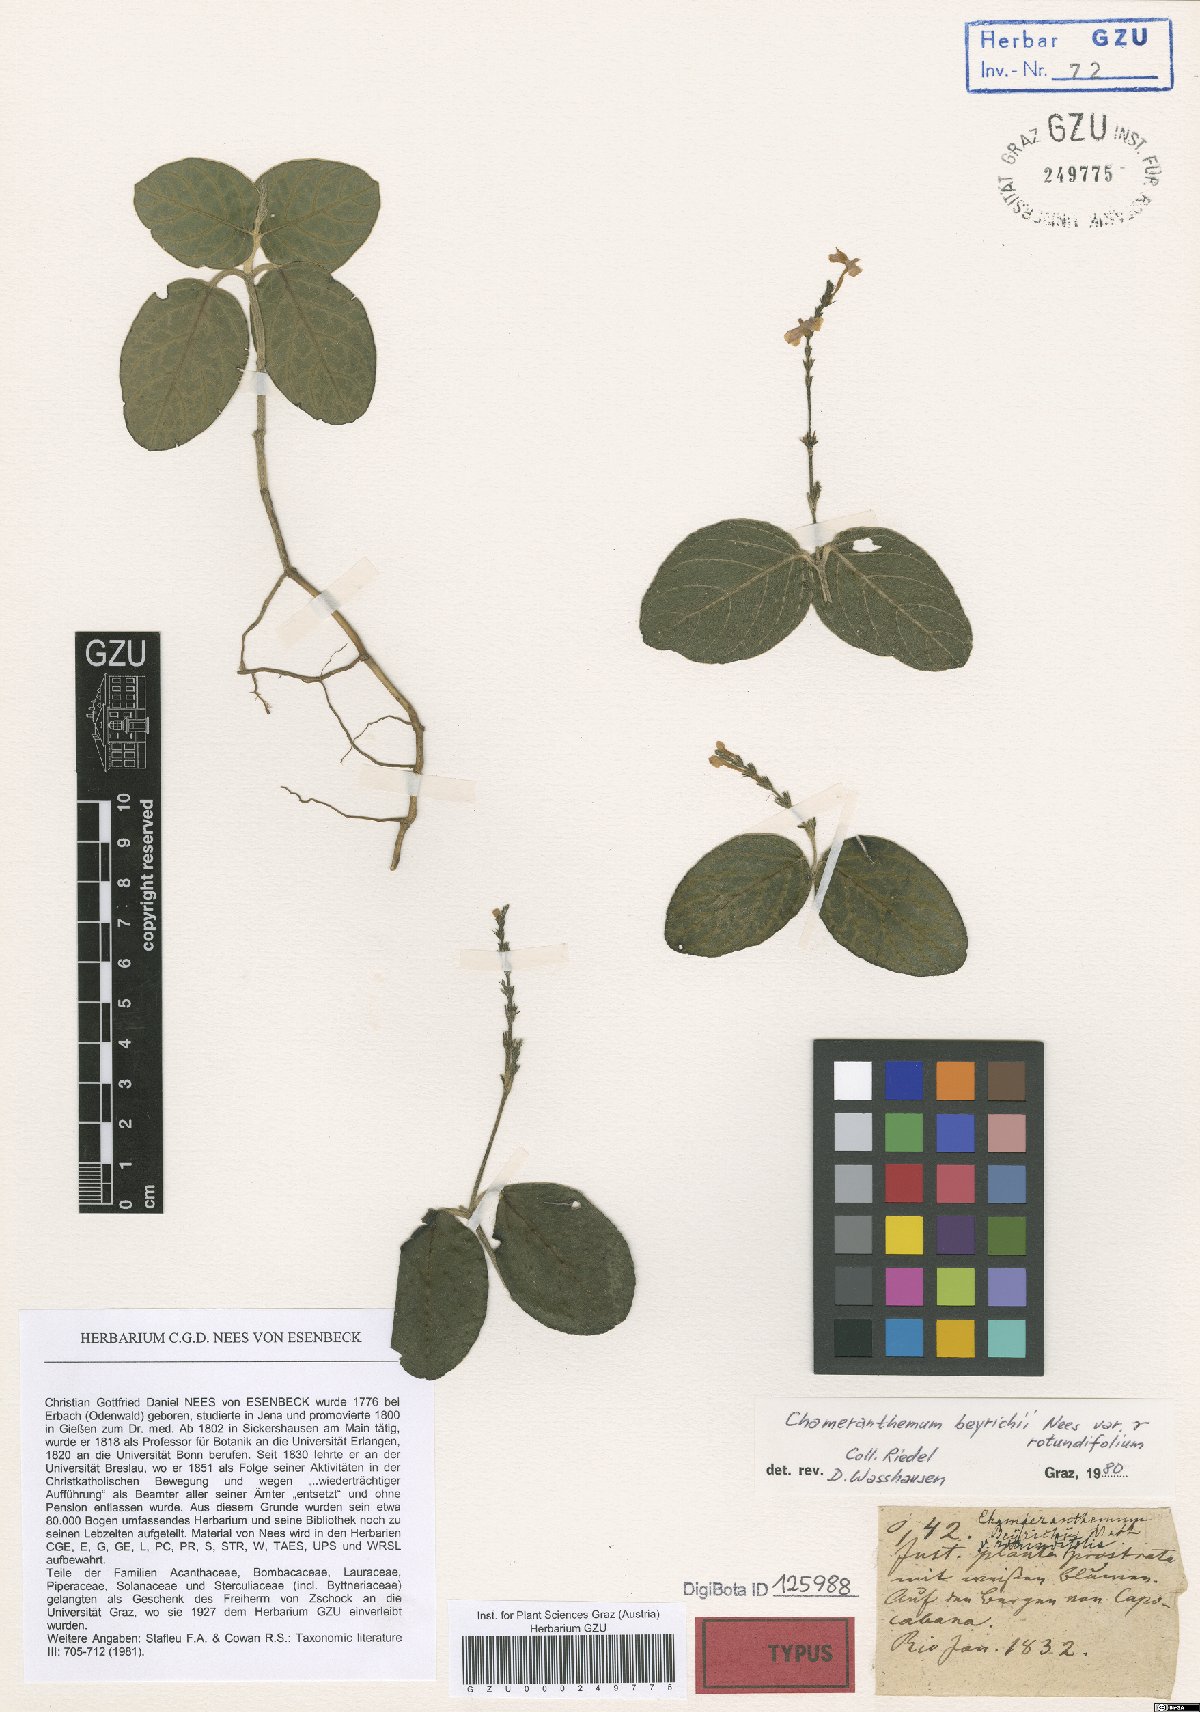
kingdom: Plantae
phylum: Tracheophyta
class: Magnoliopsida
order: Lamiales
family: Acanthaceae
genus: Chamaeranthemum
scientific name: Chamaeranthemum beyrichii
